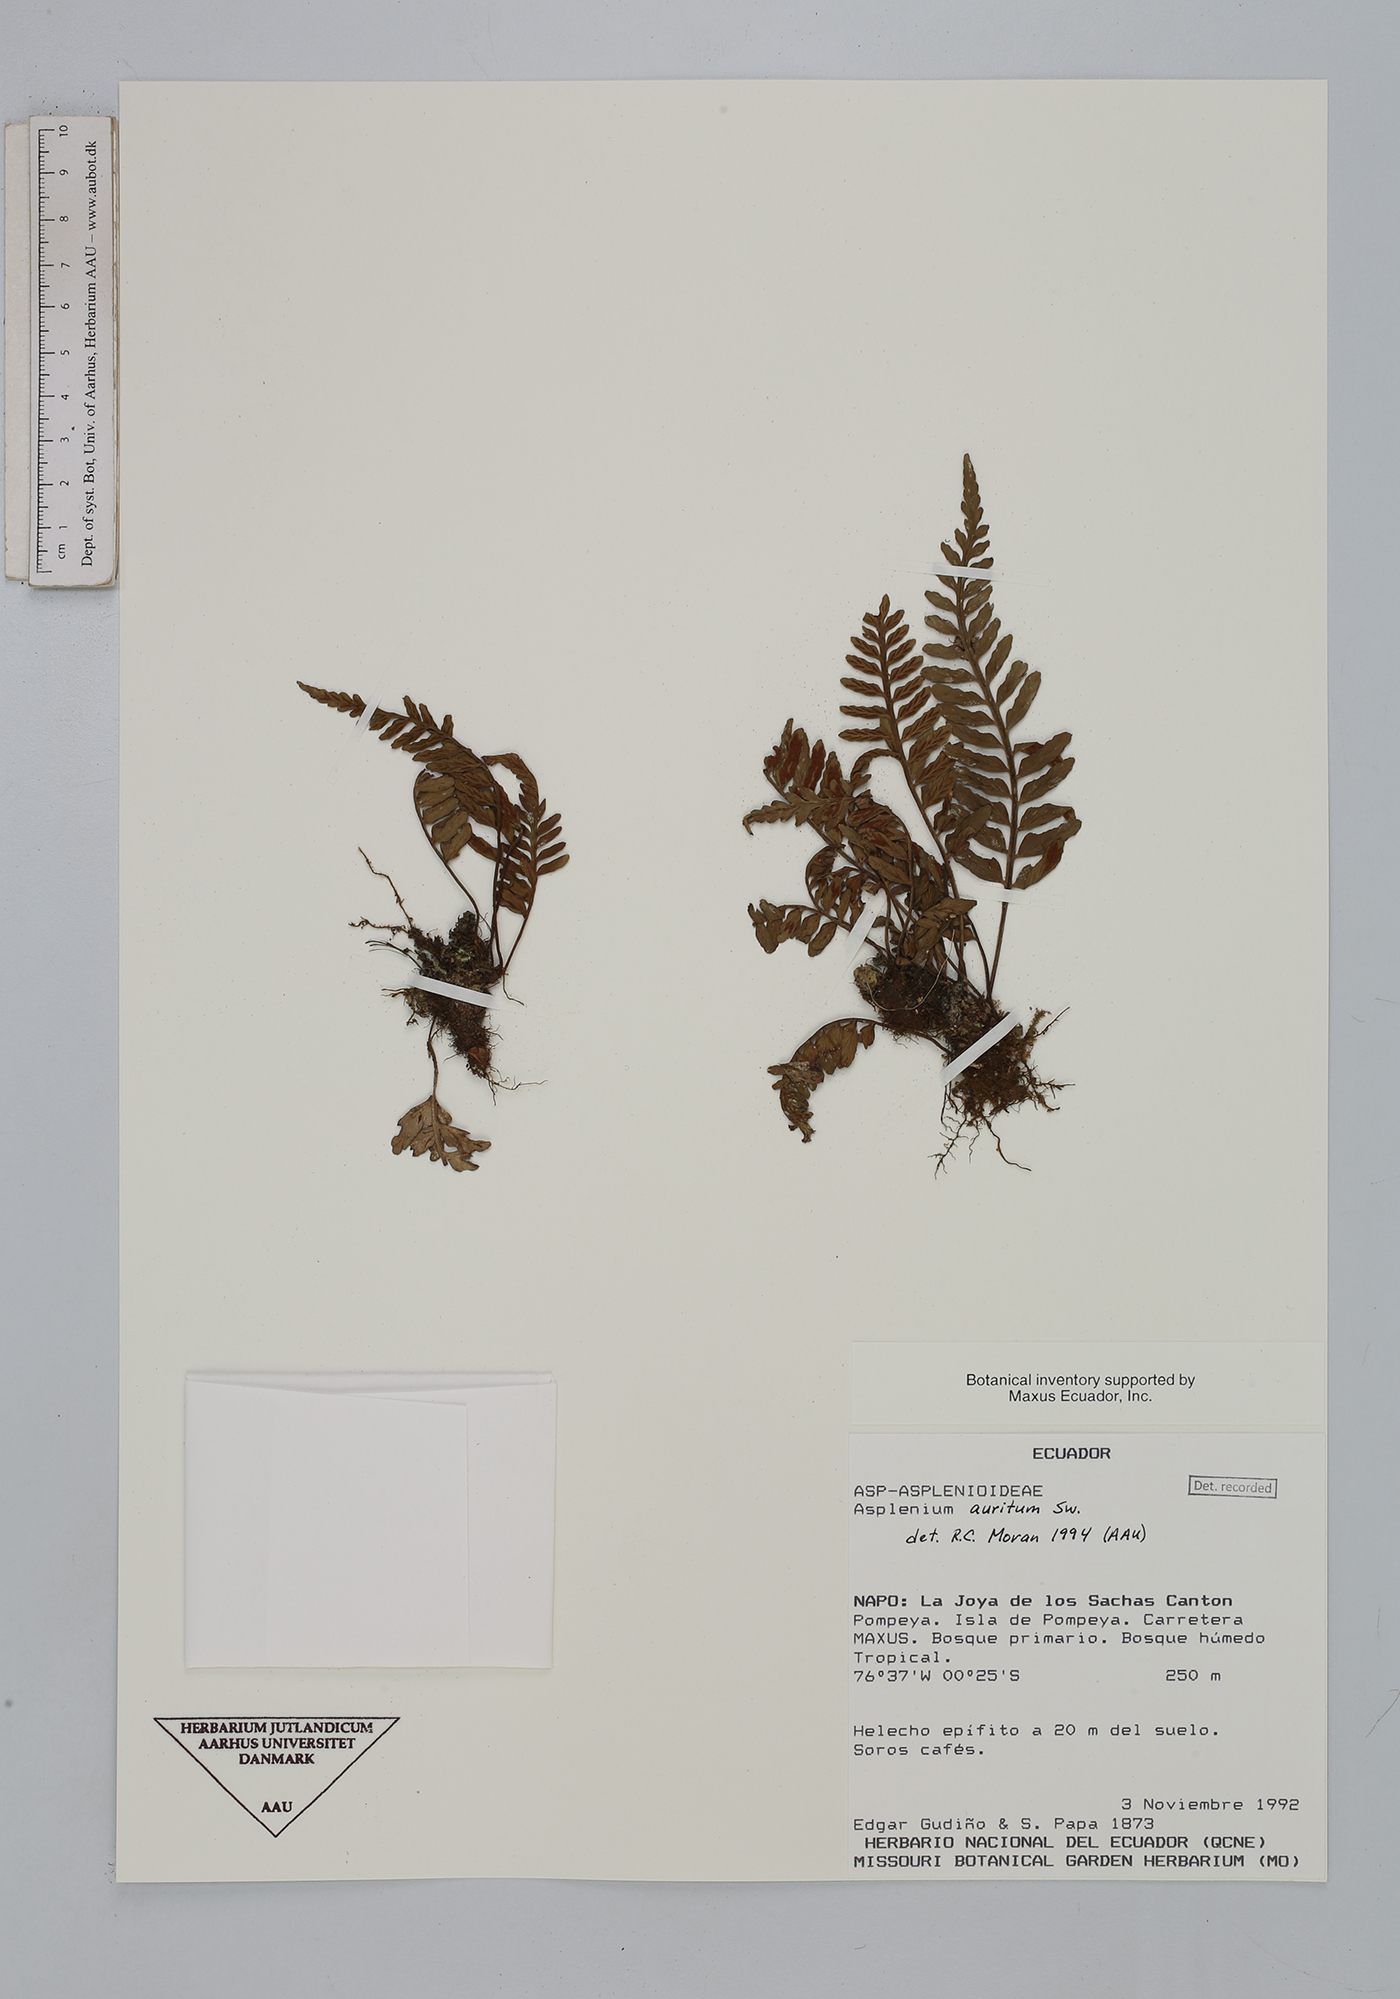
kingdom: Plantae
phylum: Tracheophyta
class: Polypodiopsida
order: Polypodiales
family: Aspleniaceae
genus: Asplenium
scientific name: Asplenium auritum
